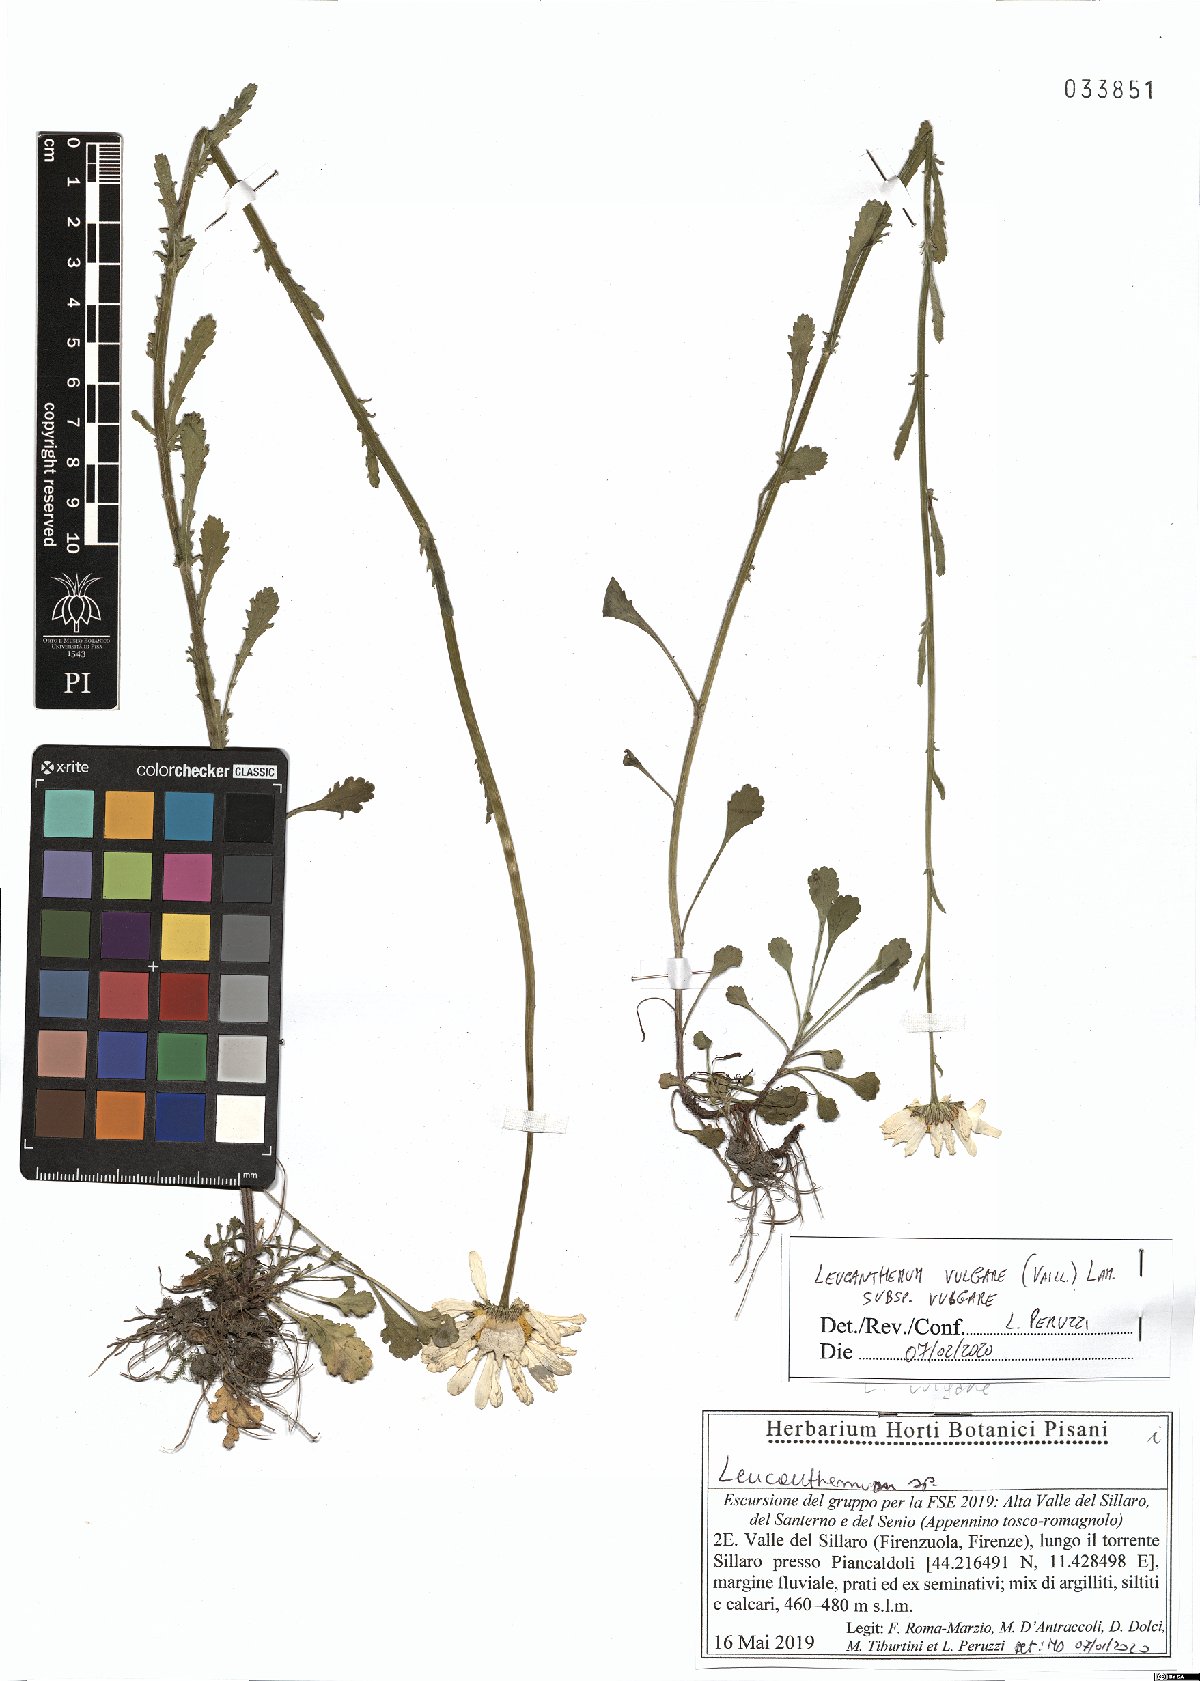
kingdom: Plantae
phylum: Tracheophyta
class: Magnoliopsida
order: Asterales
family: Asteraceae
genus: Leucanthemum
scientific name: Leucanthemum vulgare
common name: Oxeye daisy
